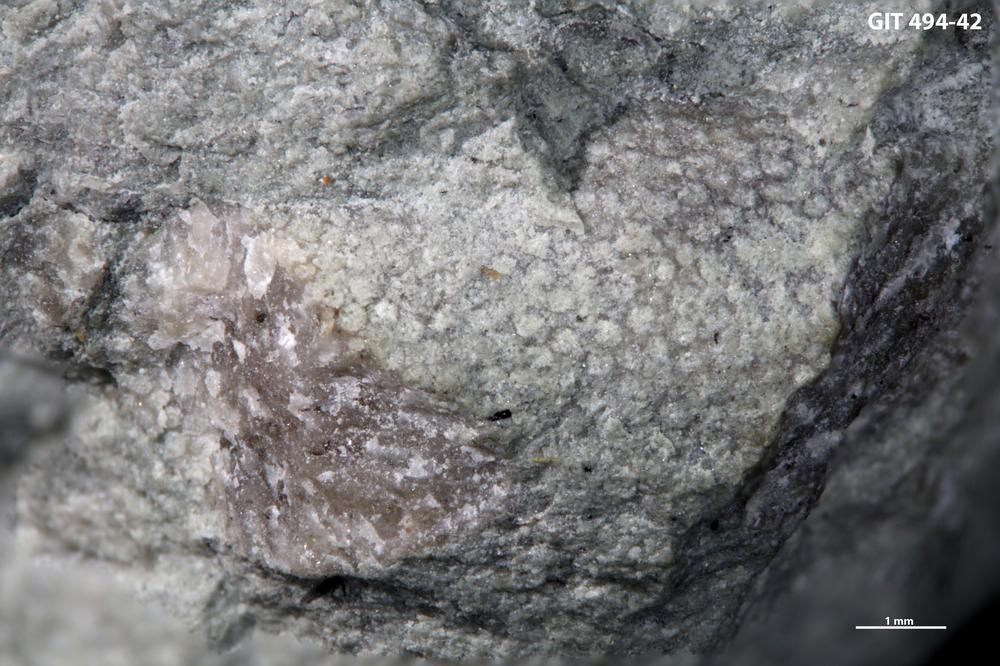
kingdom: Animalia
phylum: Bryozoa
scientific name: Bryozoa
